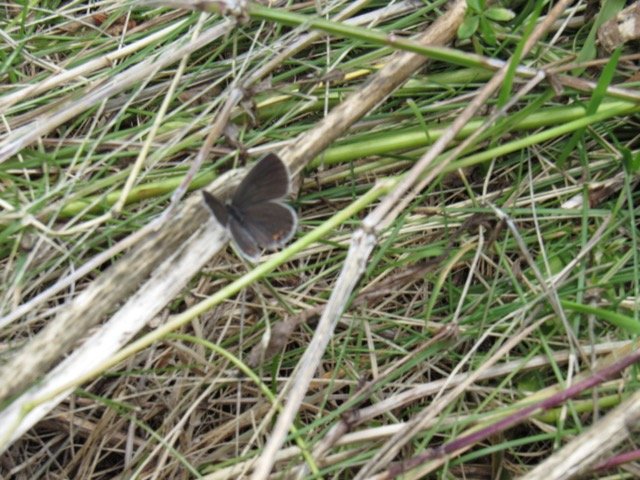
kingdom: Animalia
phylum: Arthropoda
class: Insecta
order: Lepidoptera
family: Lycaenidae
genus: Elkalyce
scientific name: Elkalyce comyntas
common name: Eastern Tailed-Blue
